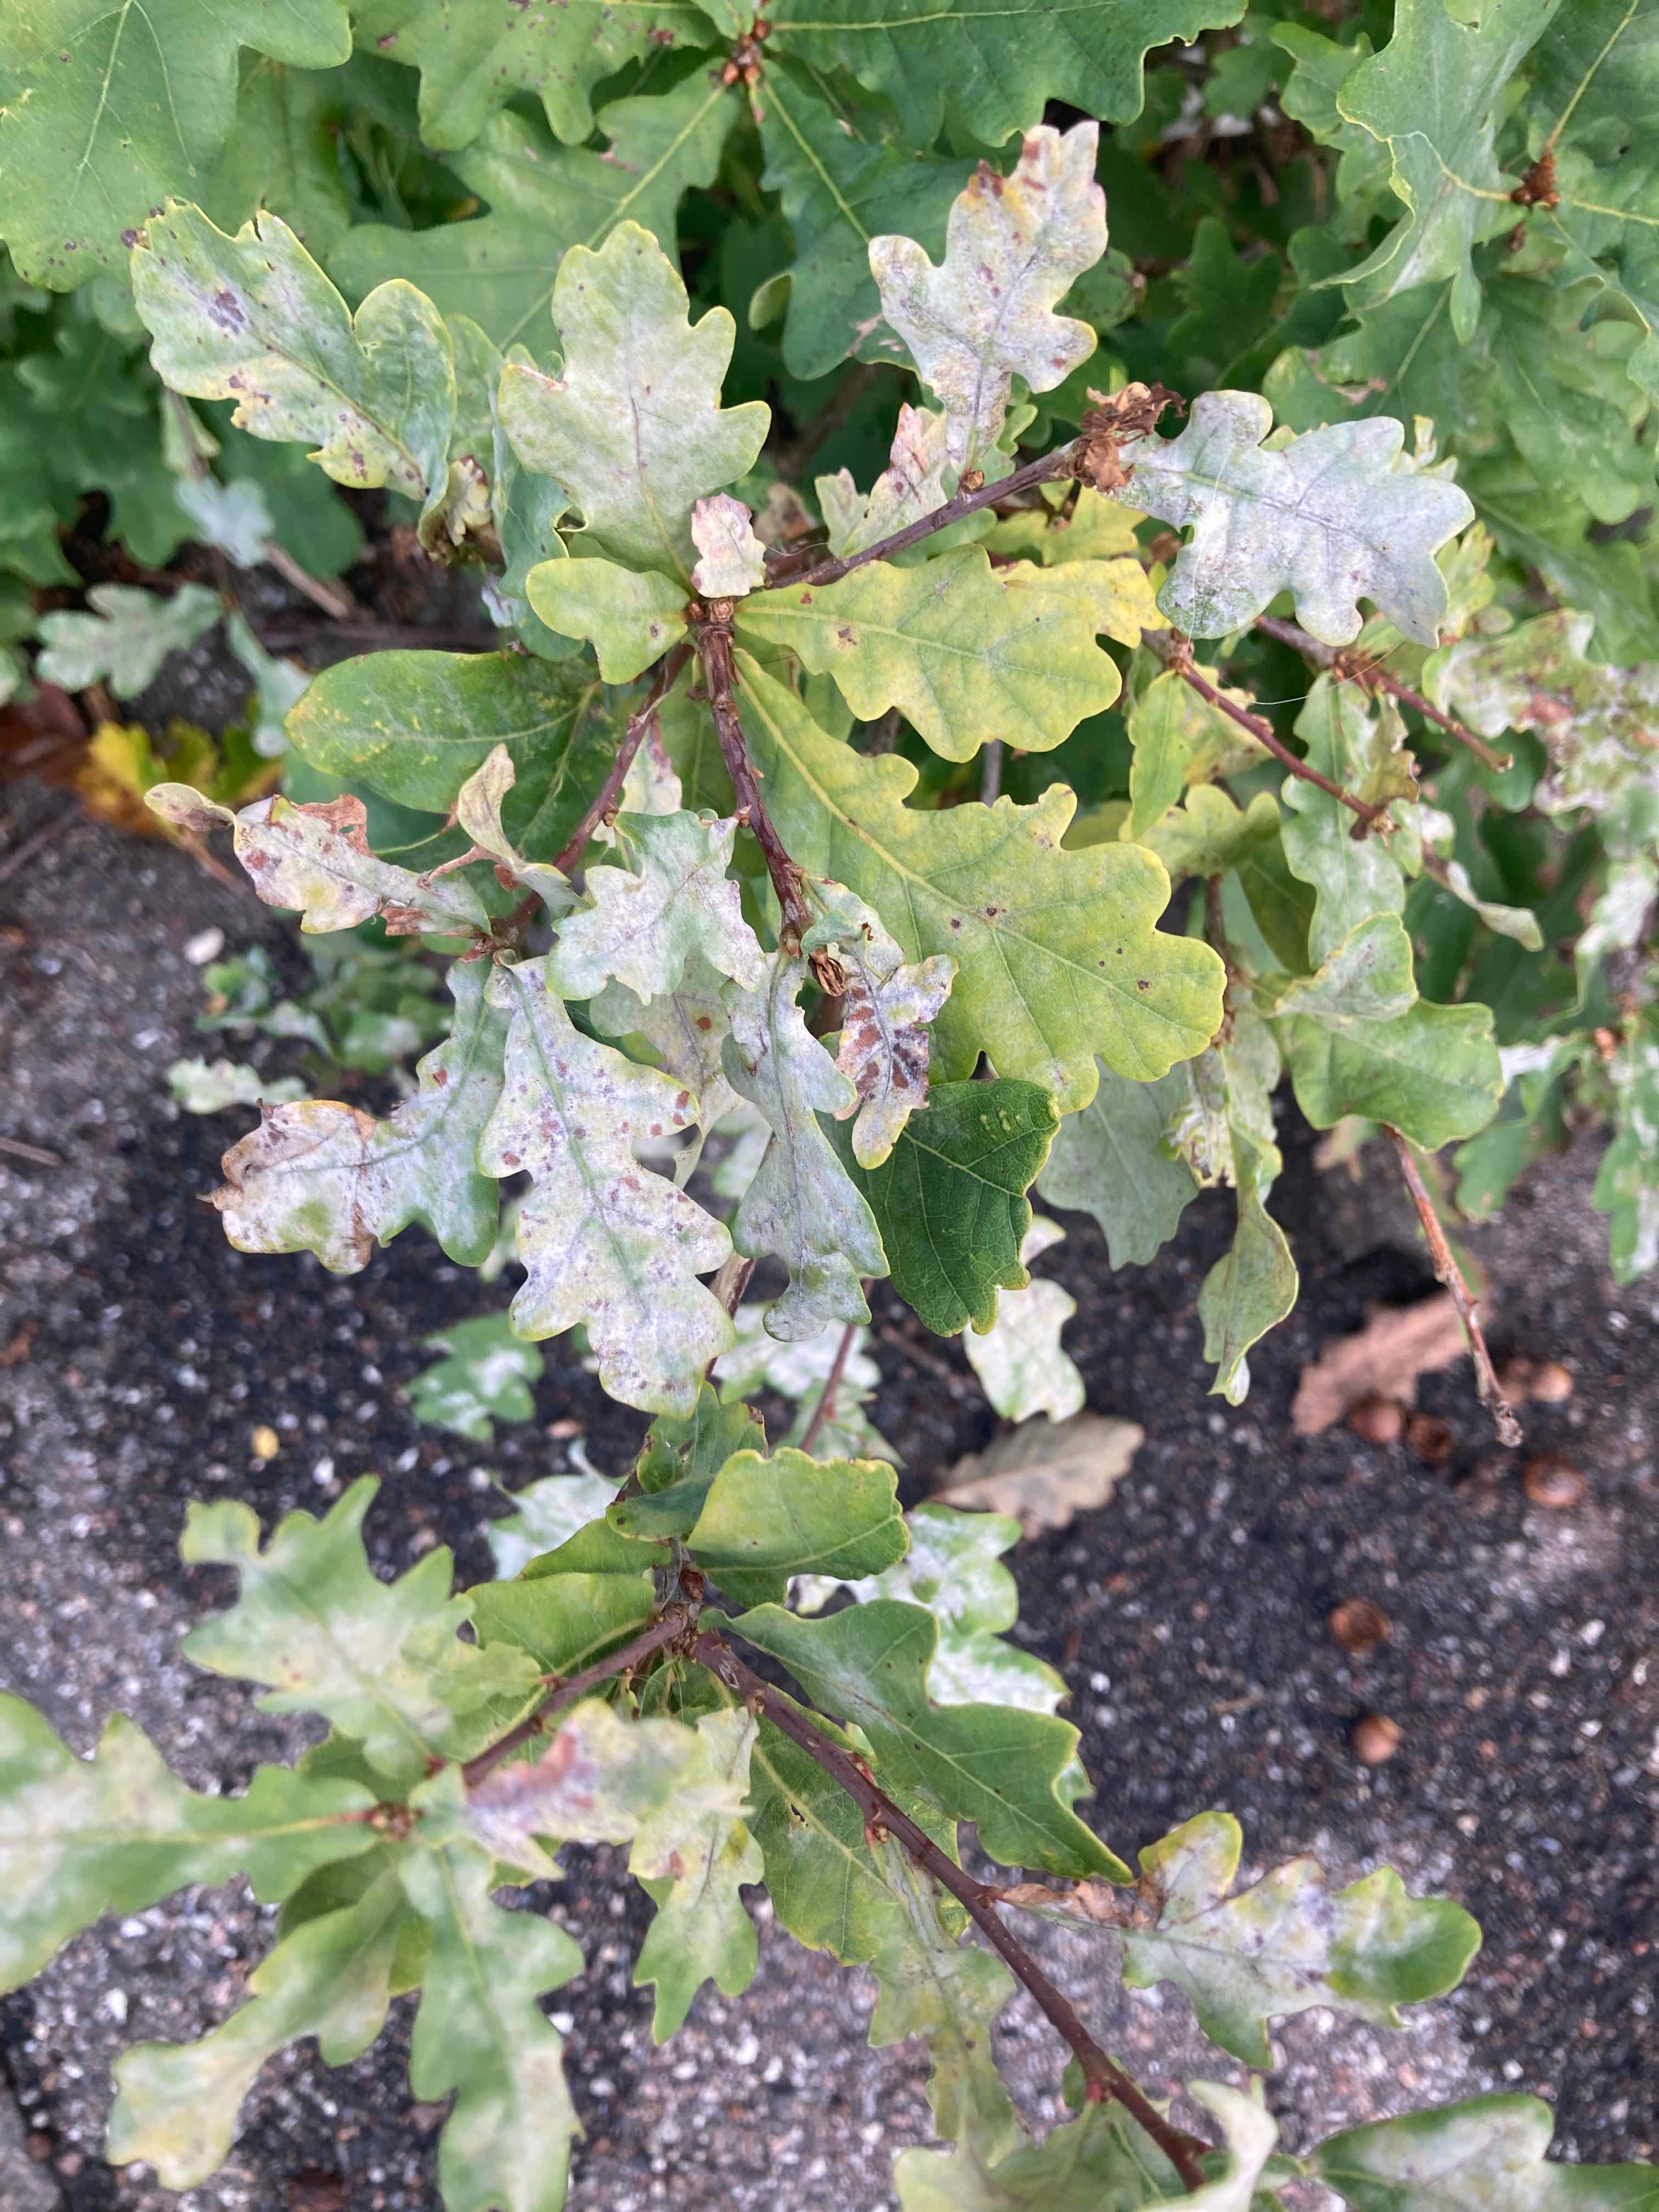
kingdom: Fungi
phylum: Ascomycota
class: Leotiomycetes
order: Helotiales
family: Erysiphaceae
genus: Erysiphe
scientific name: Erysiphe alphitoides
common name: ege-meldug
